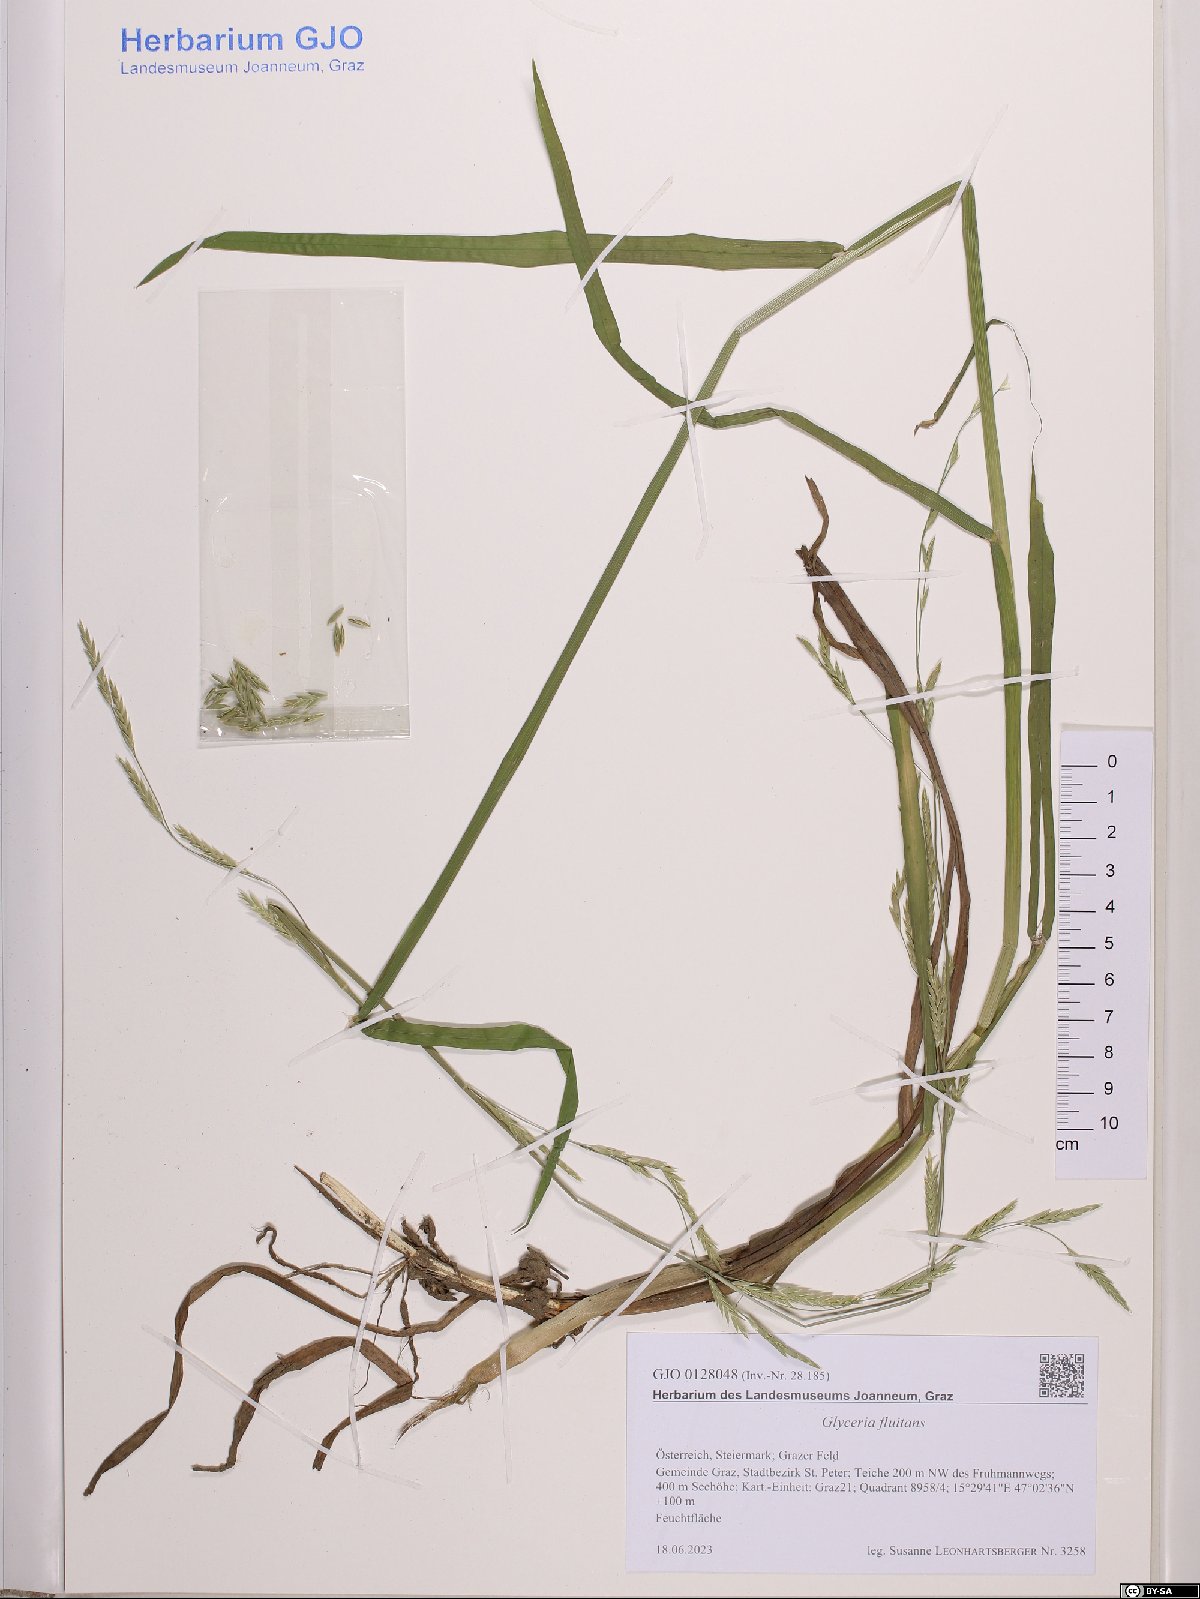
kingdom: Plantae
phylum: Tracheophyta
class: Liliopsida
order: Poales
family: Poaceae
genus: Glyceria
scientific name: Glyceria fluitans
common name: Floating sweet-grass
